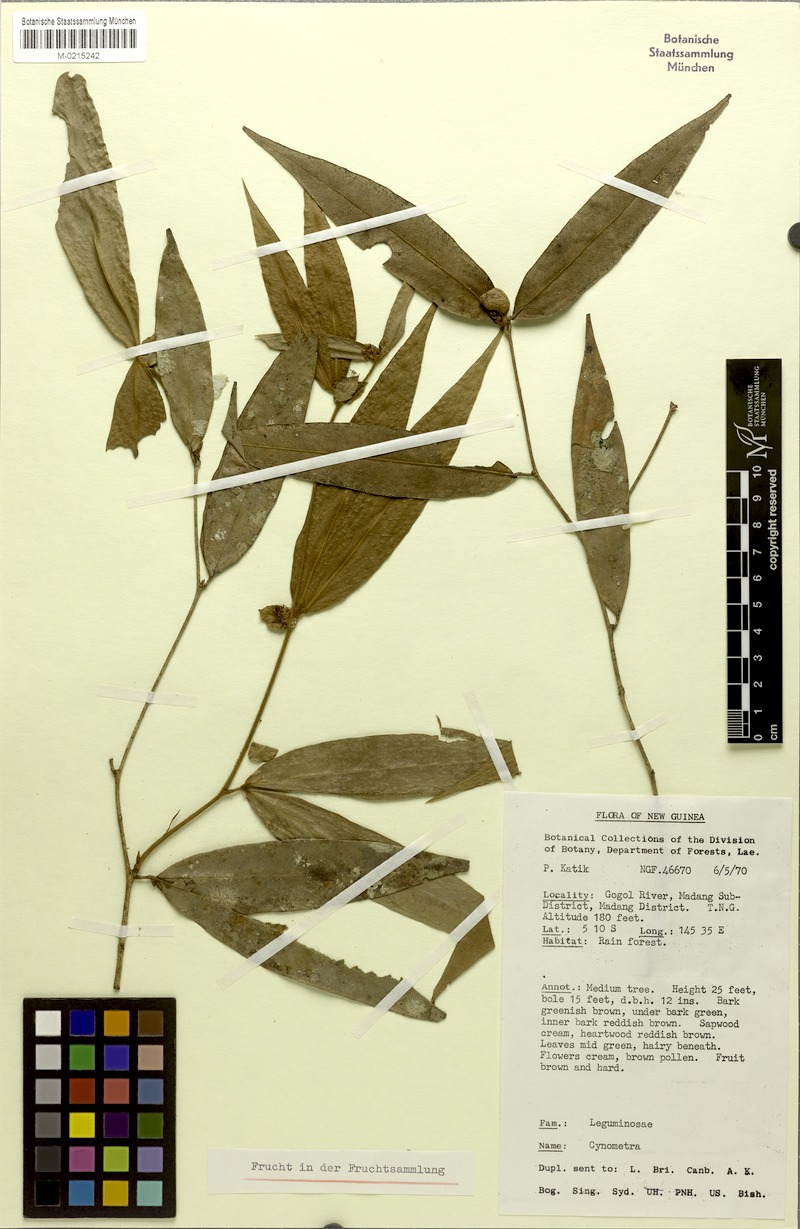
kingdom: Plantae
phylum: Tracheophyta
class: Magnoliopsida
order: Fabales
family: Fabaceae
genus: Cynometra
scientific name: Cynometra katikii
